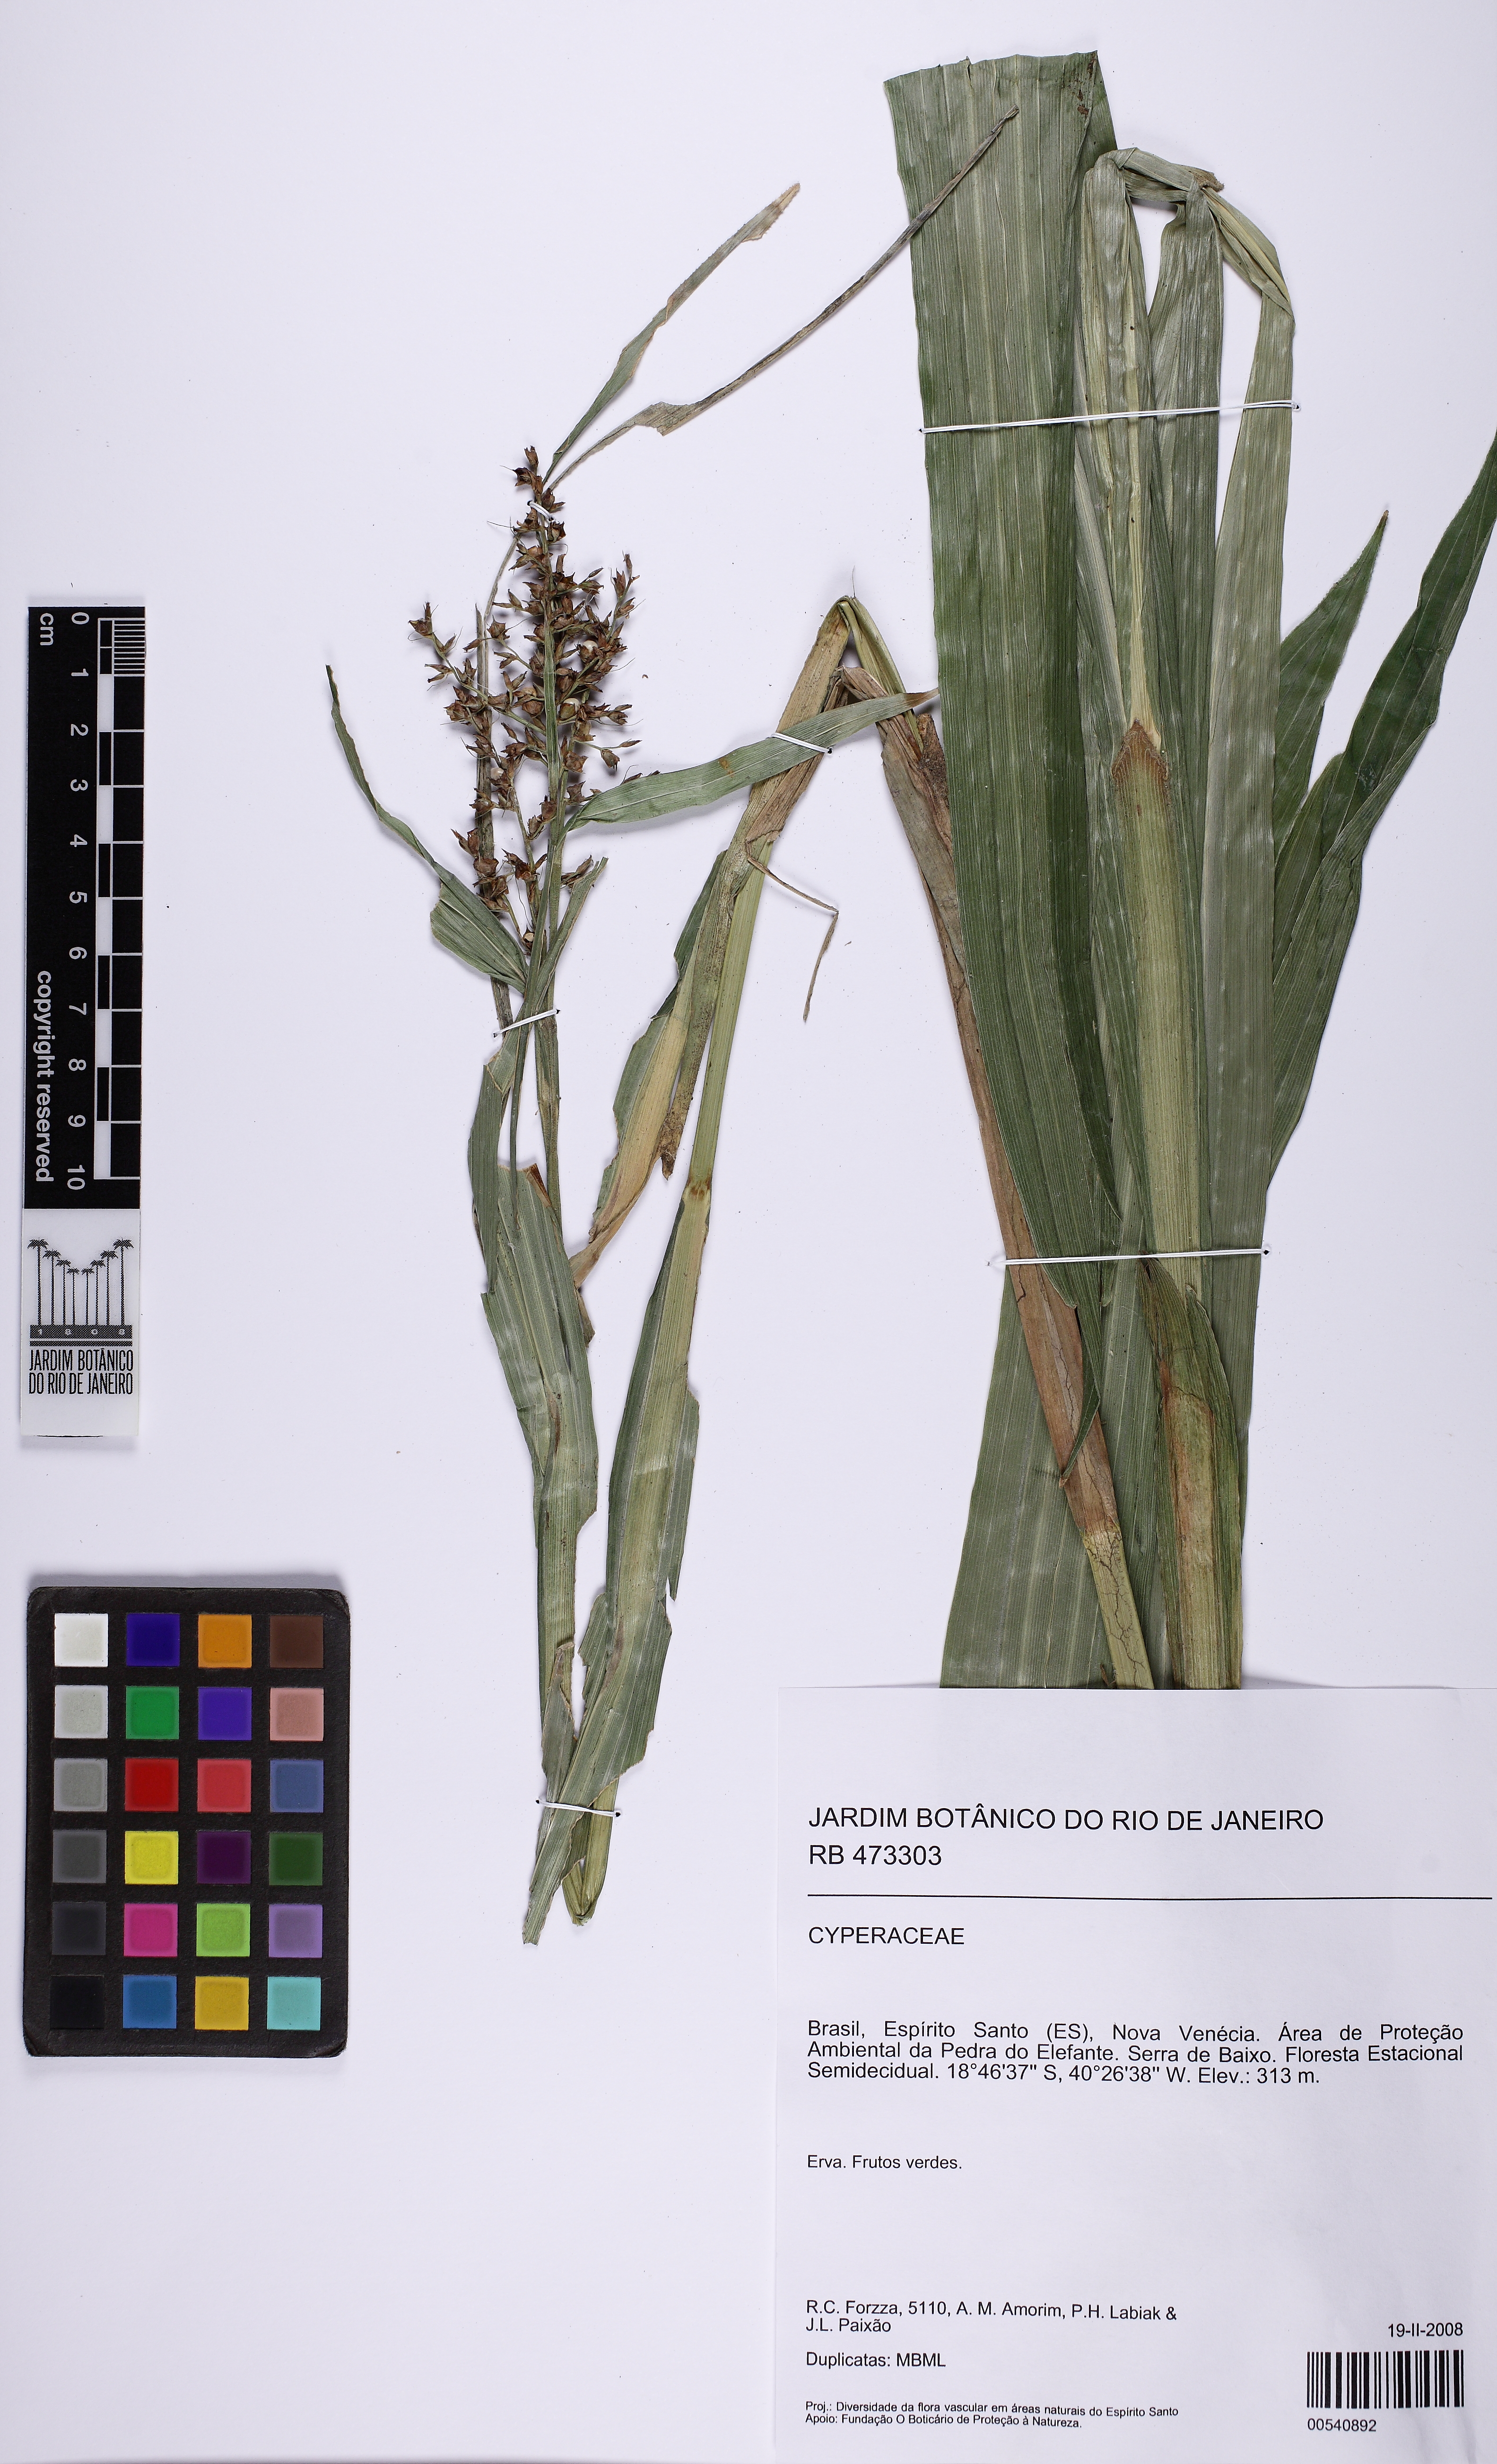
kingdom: Plantae
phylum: Tracheophyta
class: Liliopsida
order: Poales
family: Cyperaceae
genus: Scleria
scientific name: Scleria latifolia
